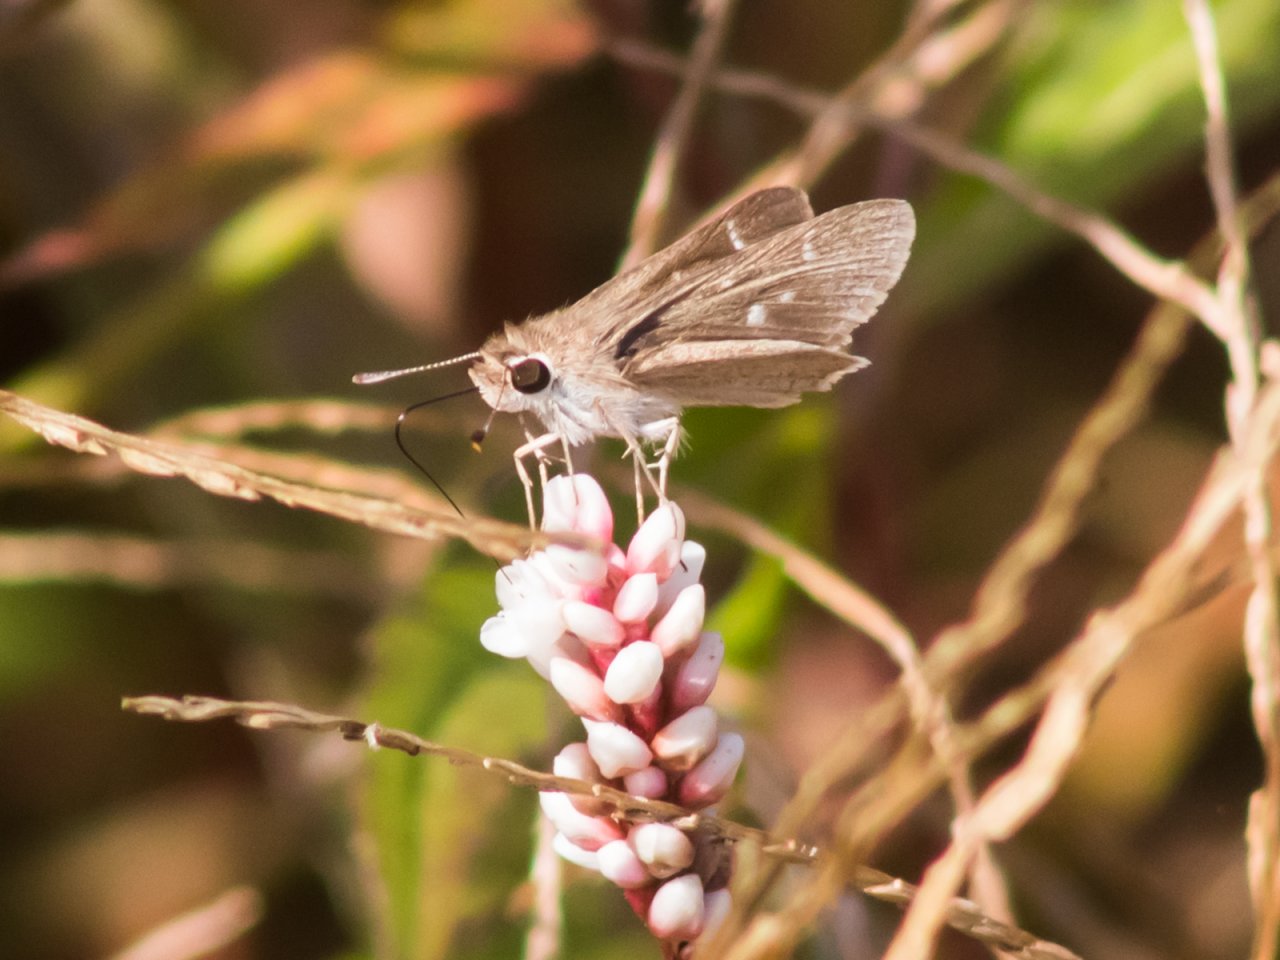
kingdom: Animalia
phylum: Arthropoda
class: Insecta
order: Lepidoptera
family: Hesperiidae
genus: Lerodea
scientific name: Lerodea eufala
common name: Eufala Skipper
